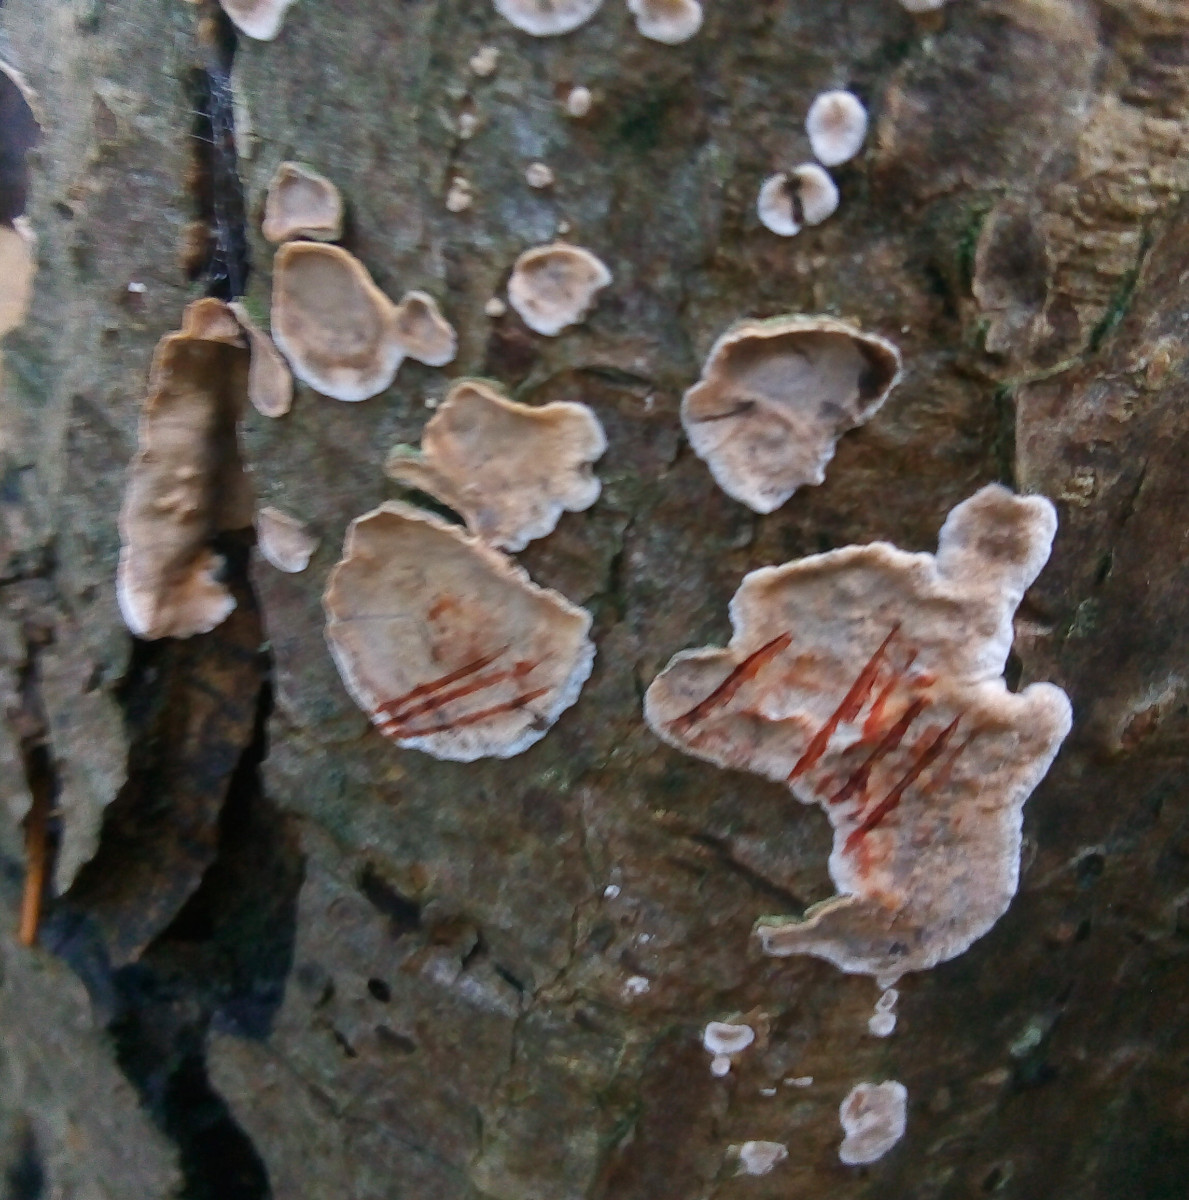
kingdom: Fungi
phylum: Basidiomycota
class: Agaricomycetes
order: Russulales
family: Stereaceae
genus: Stereum
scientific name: Stereum rugosum
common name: rynket lædersvamp
